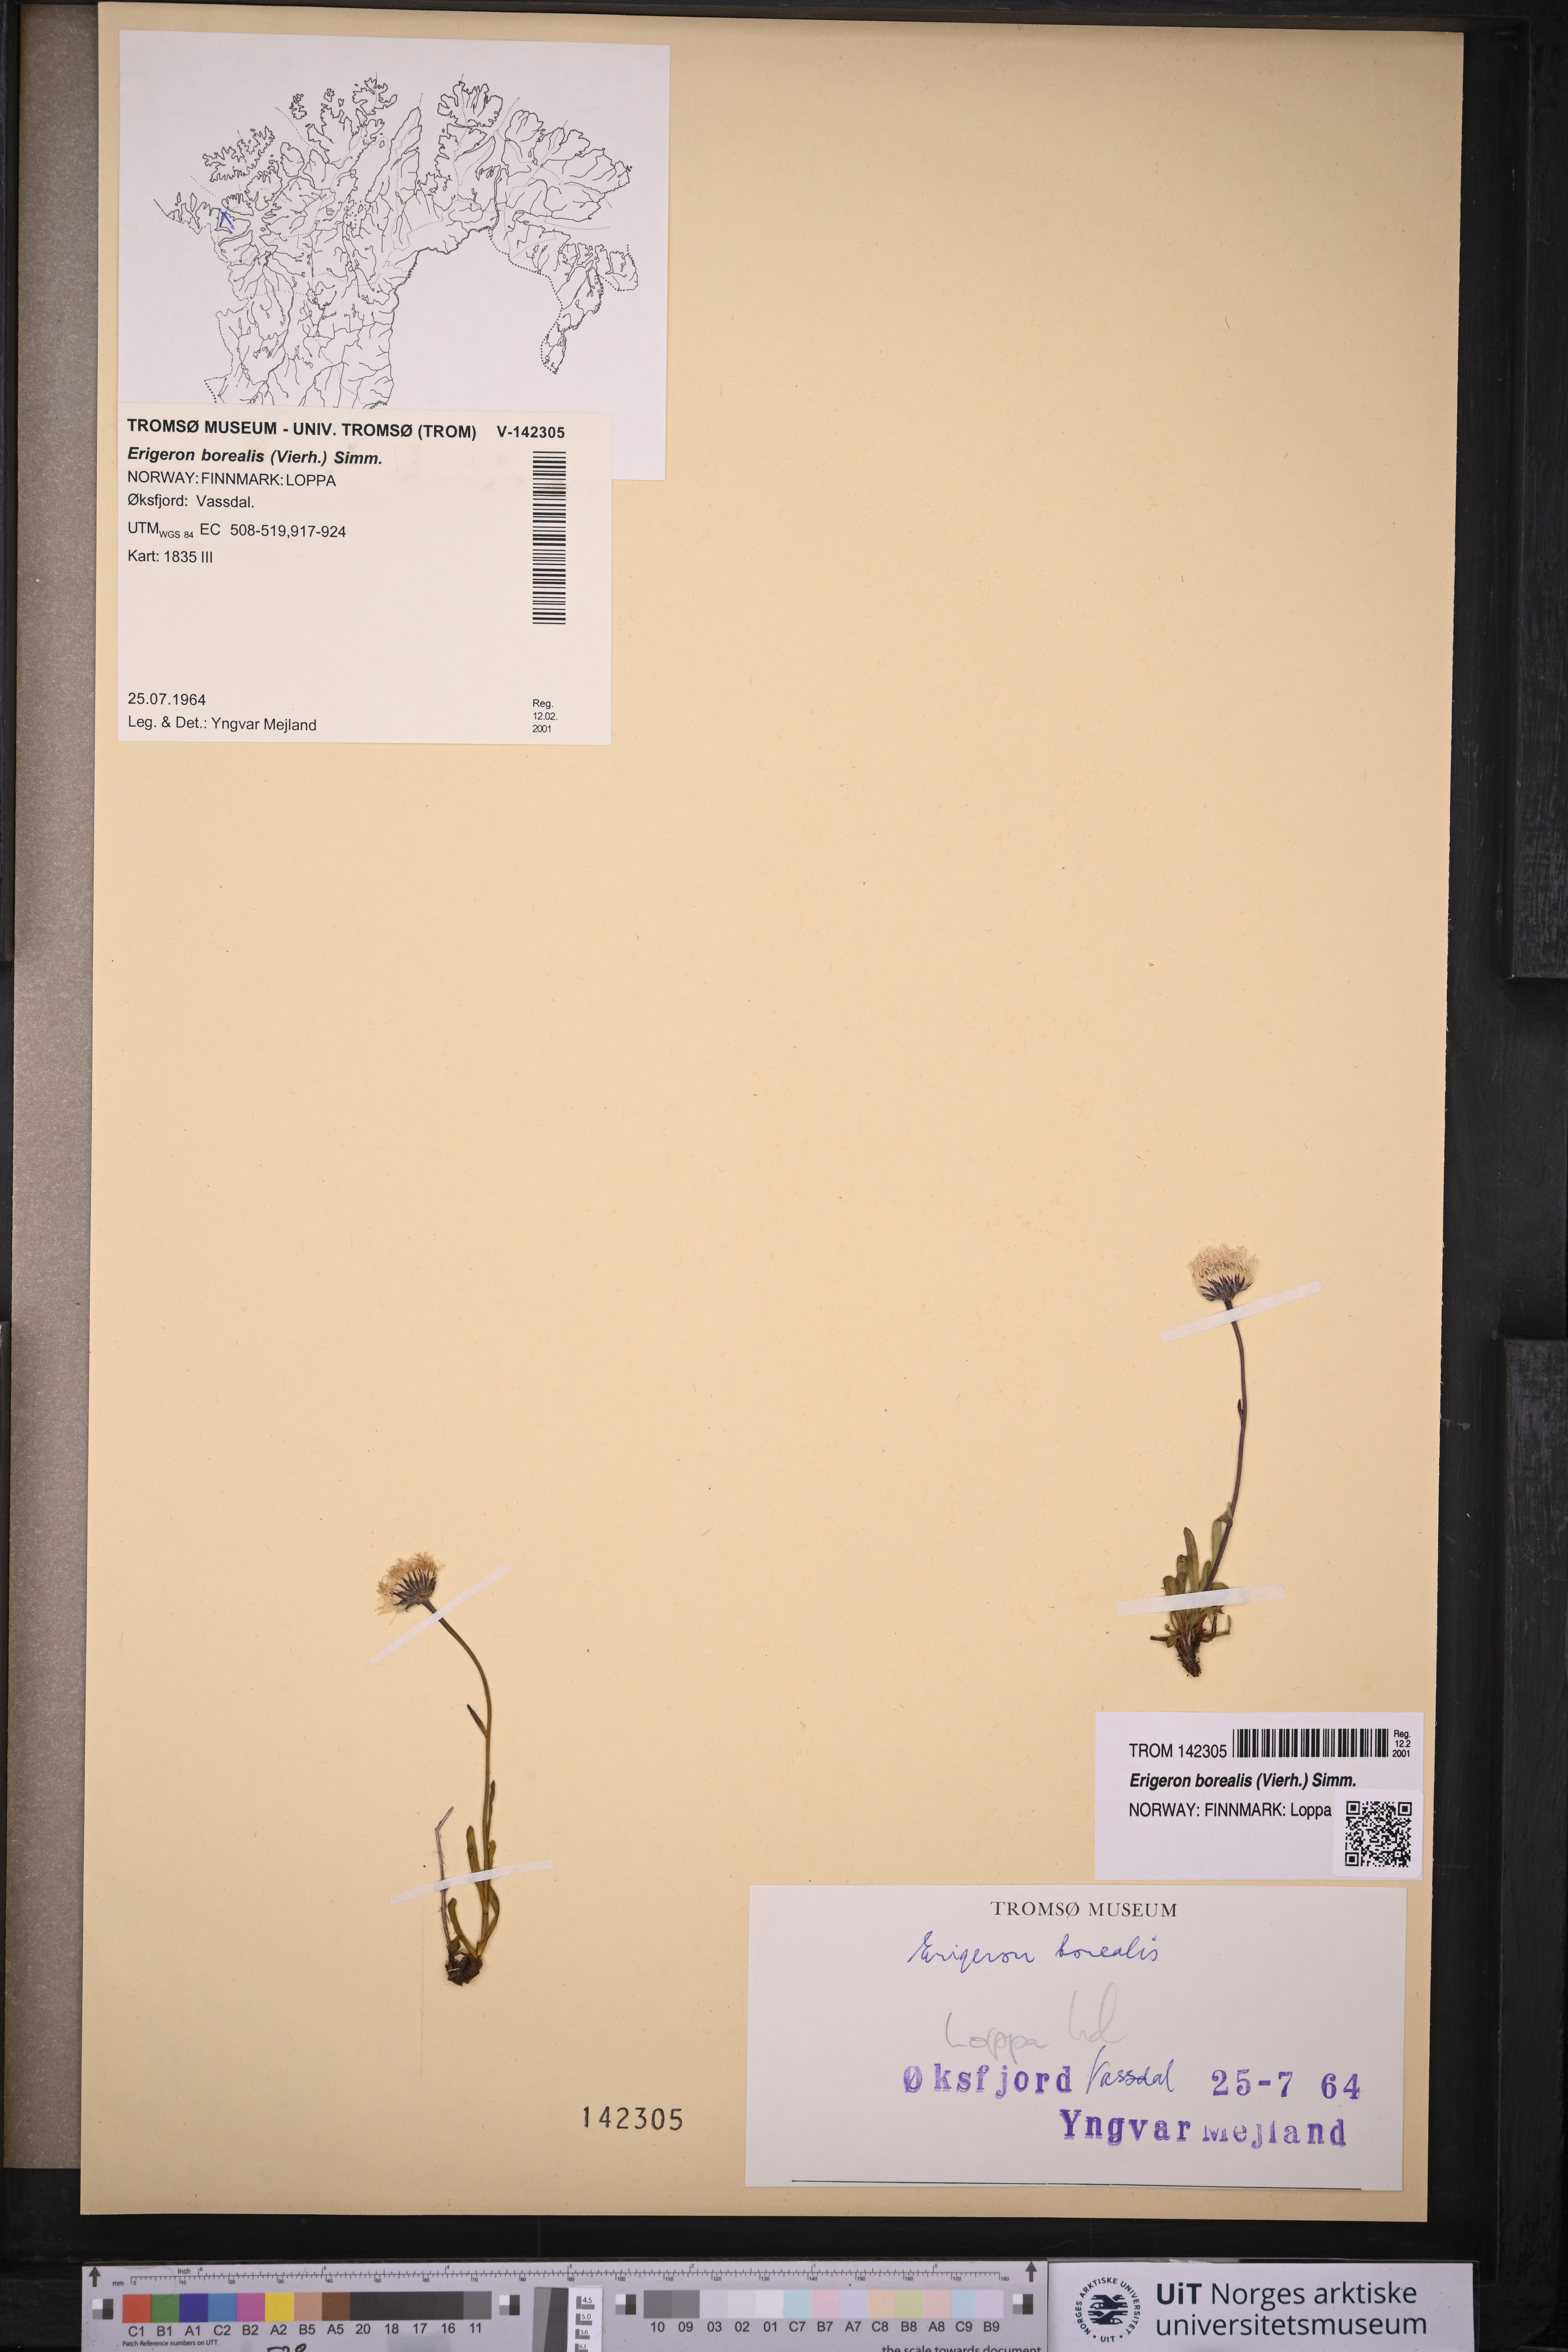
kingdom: Plantae
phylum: Tracheophyta
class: Magnoliopsida
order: Asterales
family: Asteraceae
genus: Erigeron
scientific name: Erigeron borealis
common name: Alpine fleabane
